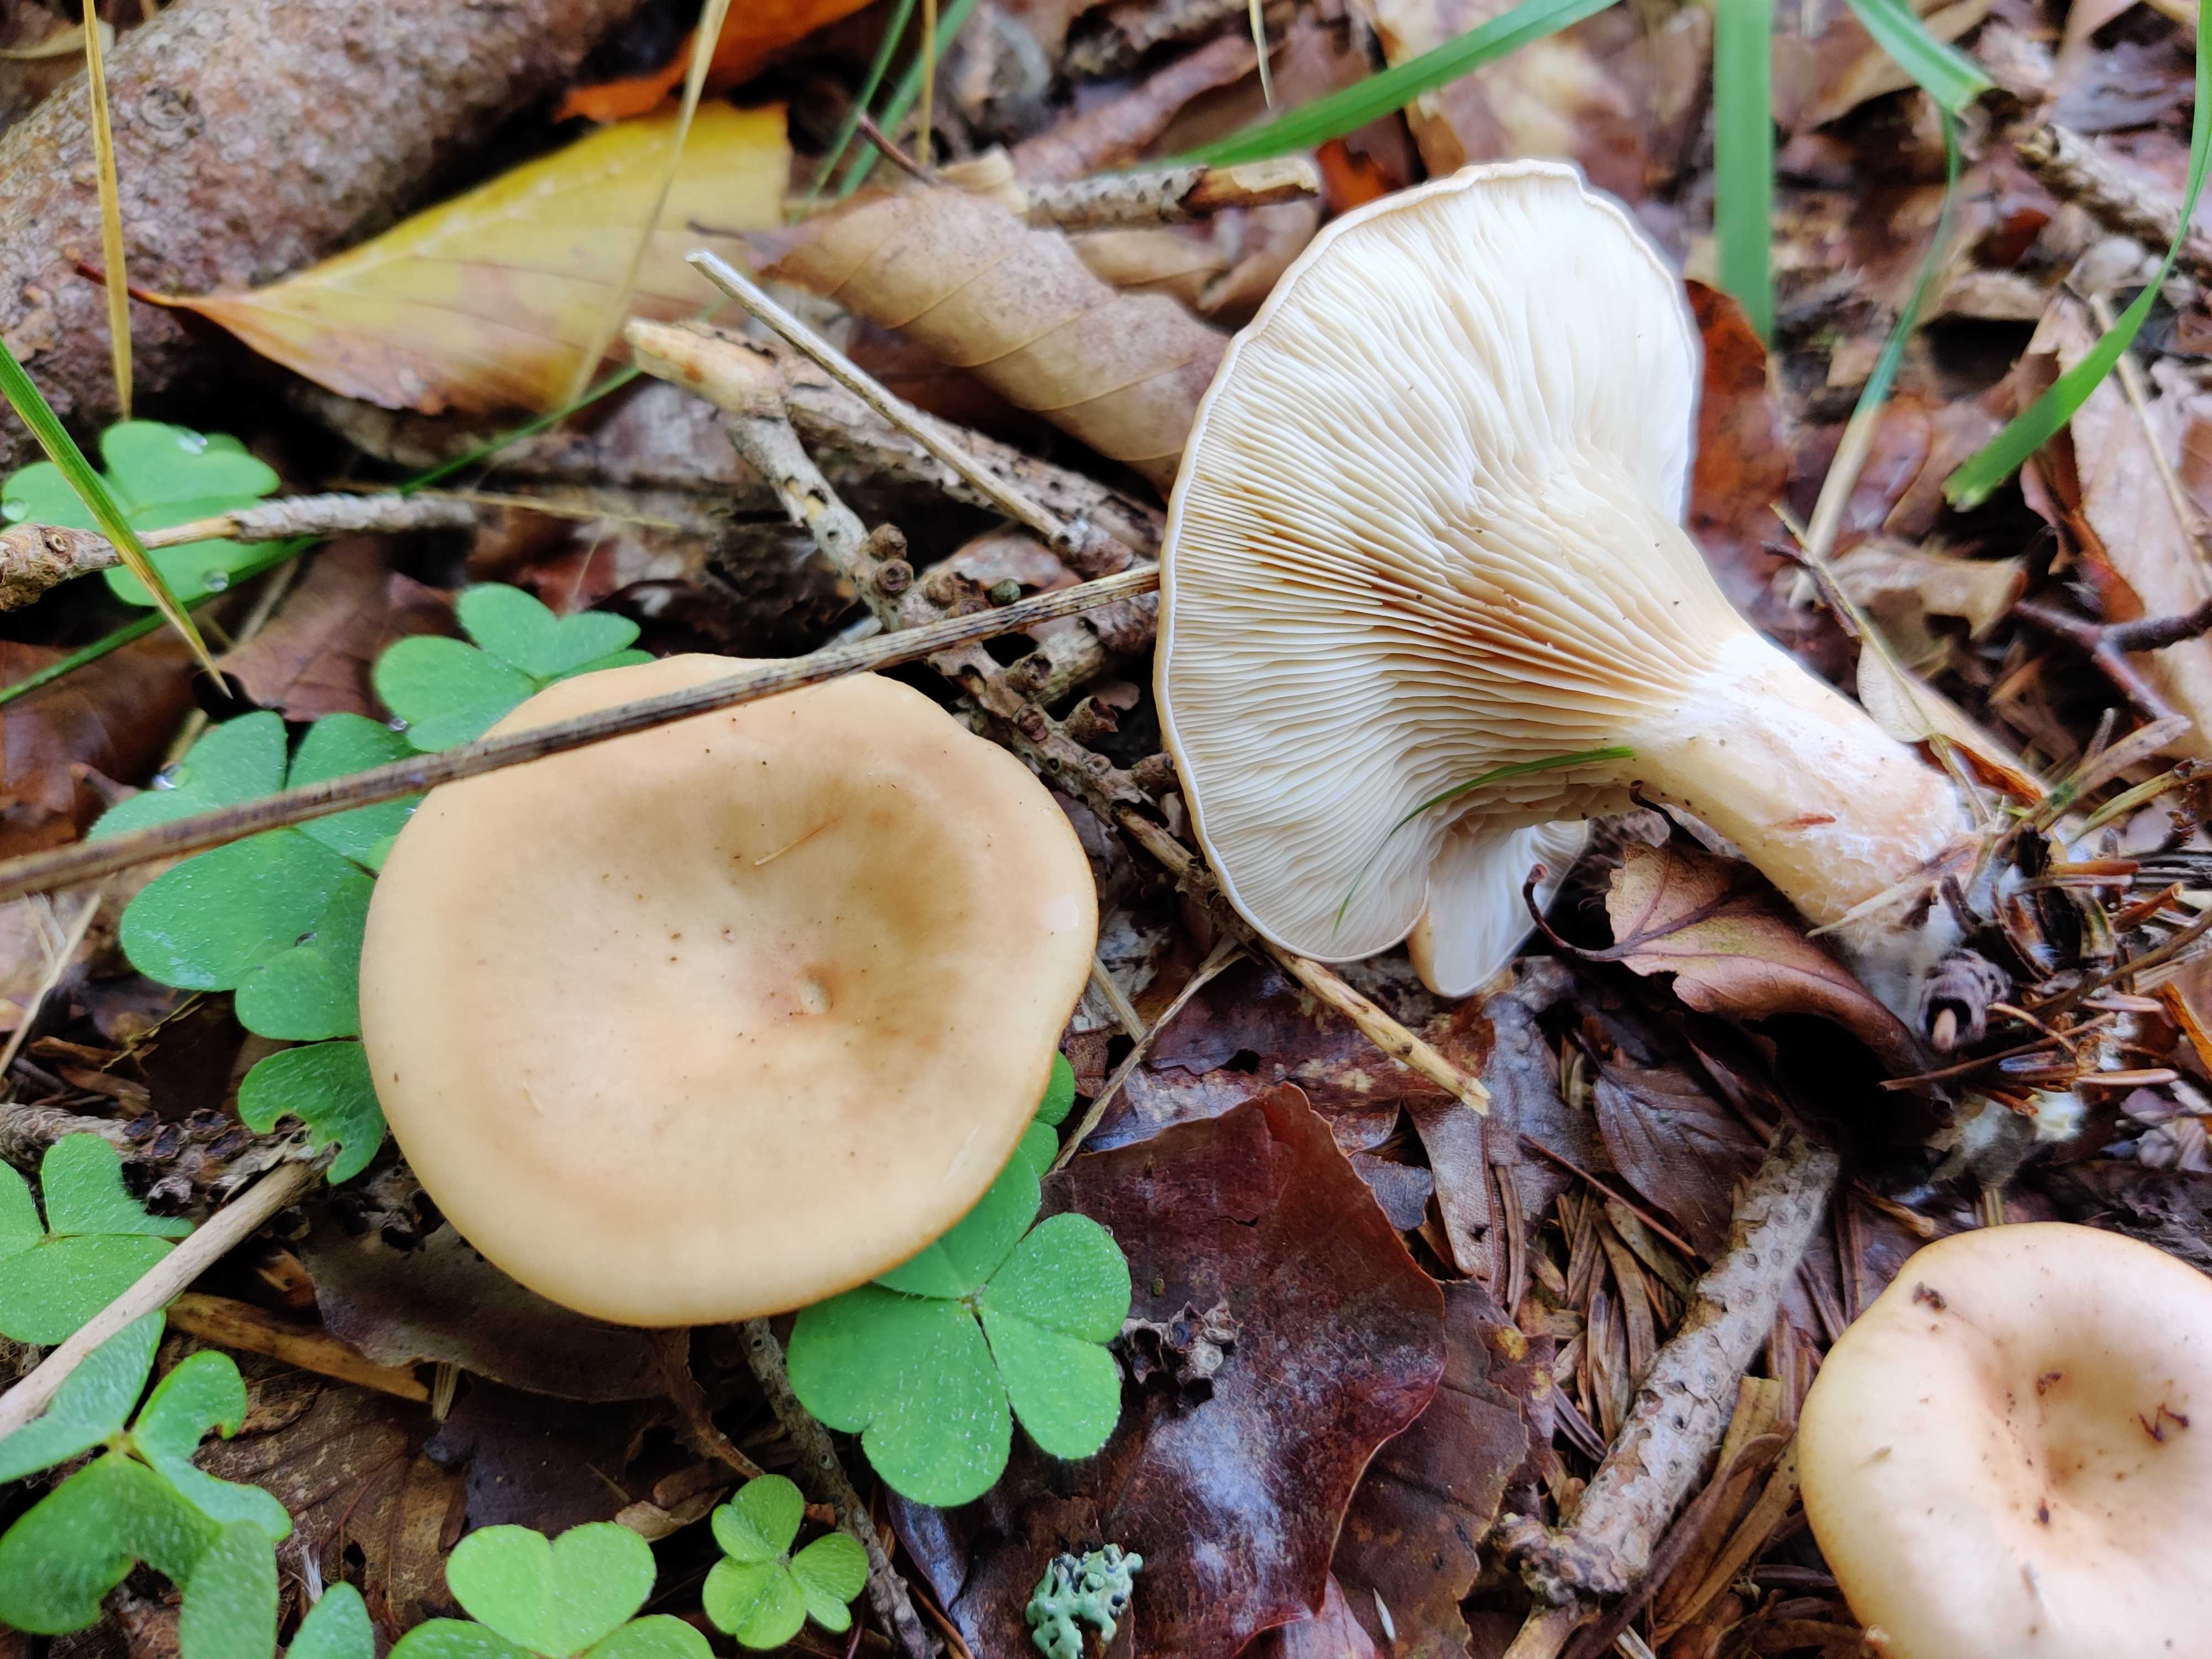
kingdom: Fungi
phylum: Basidiomycota
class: Agaricomycetes
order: Agaricales
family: Tricholomataceae
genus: Paralepista
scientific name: Paralepista
